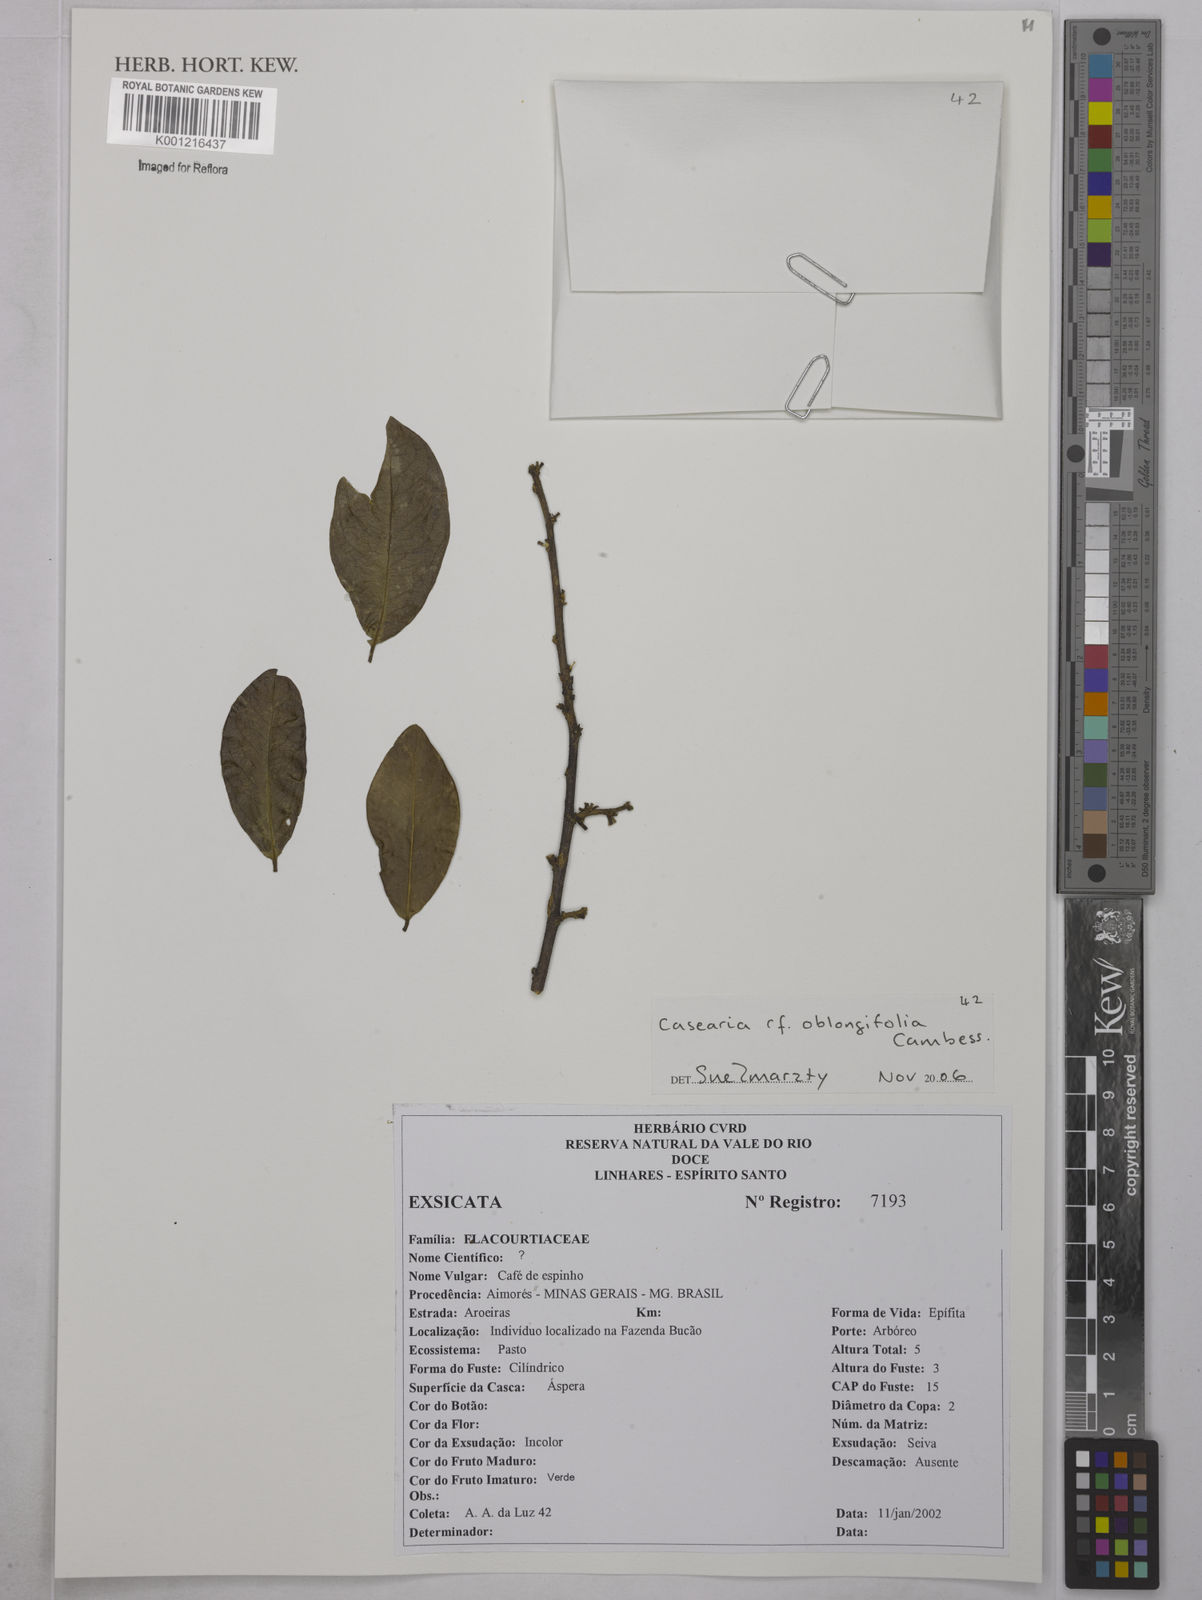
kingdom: Plantae
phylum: Tracheophyta
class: Magnoliopsida
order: Malpighiales
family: Salicaceae
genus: Casearia
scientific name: Casearia oblongifolia
